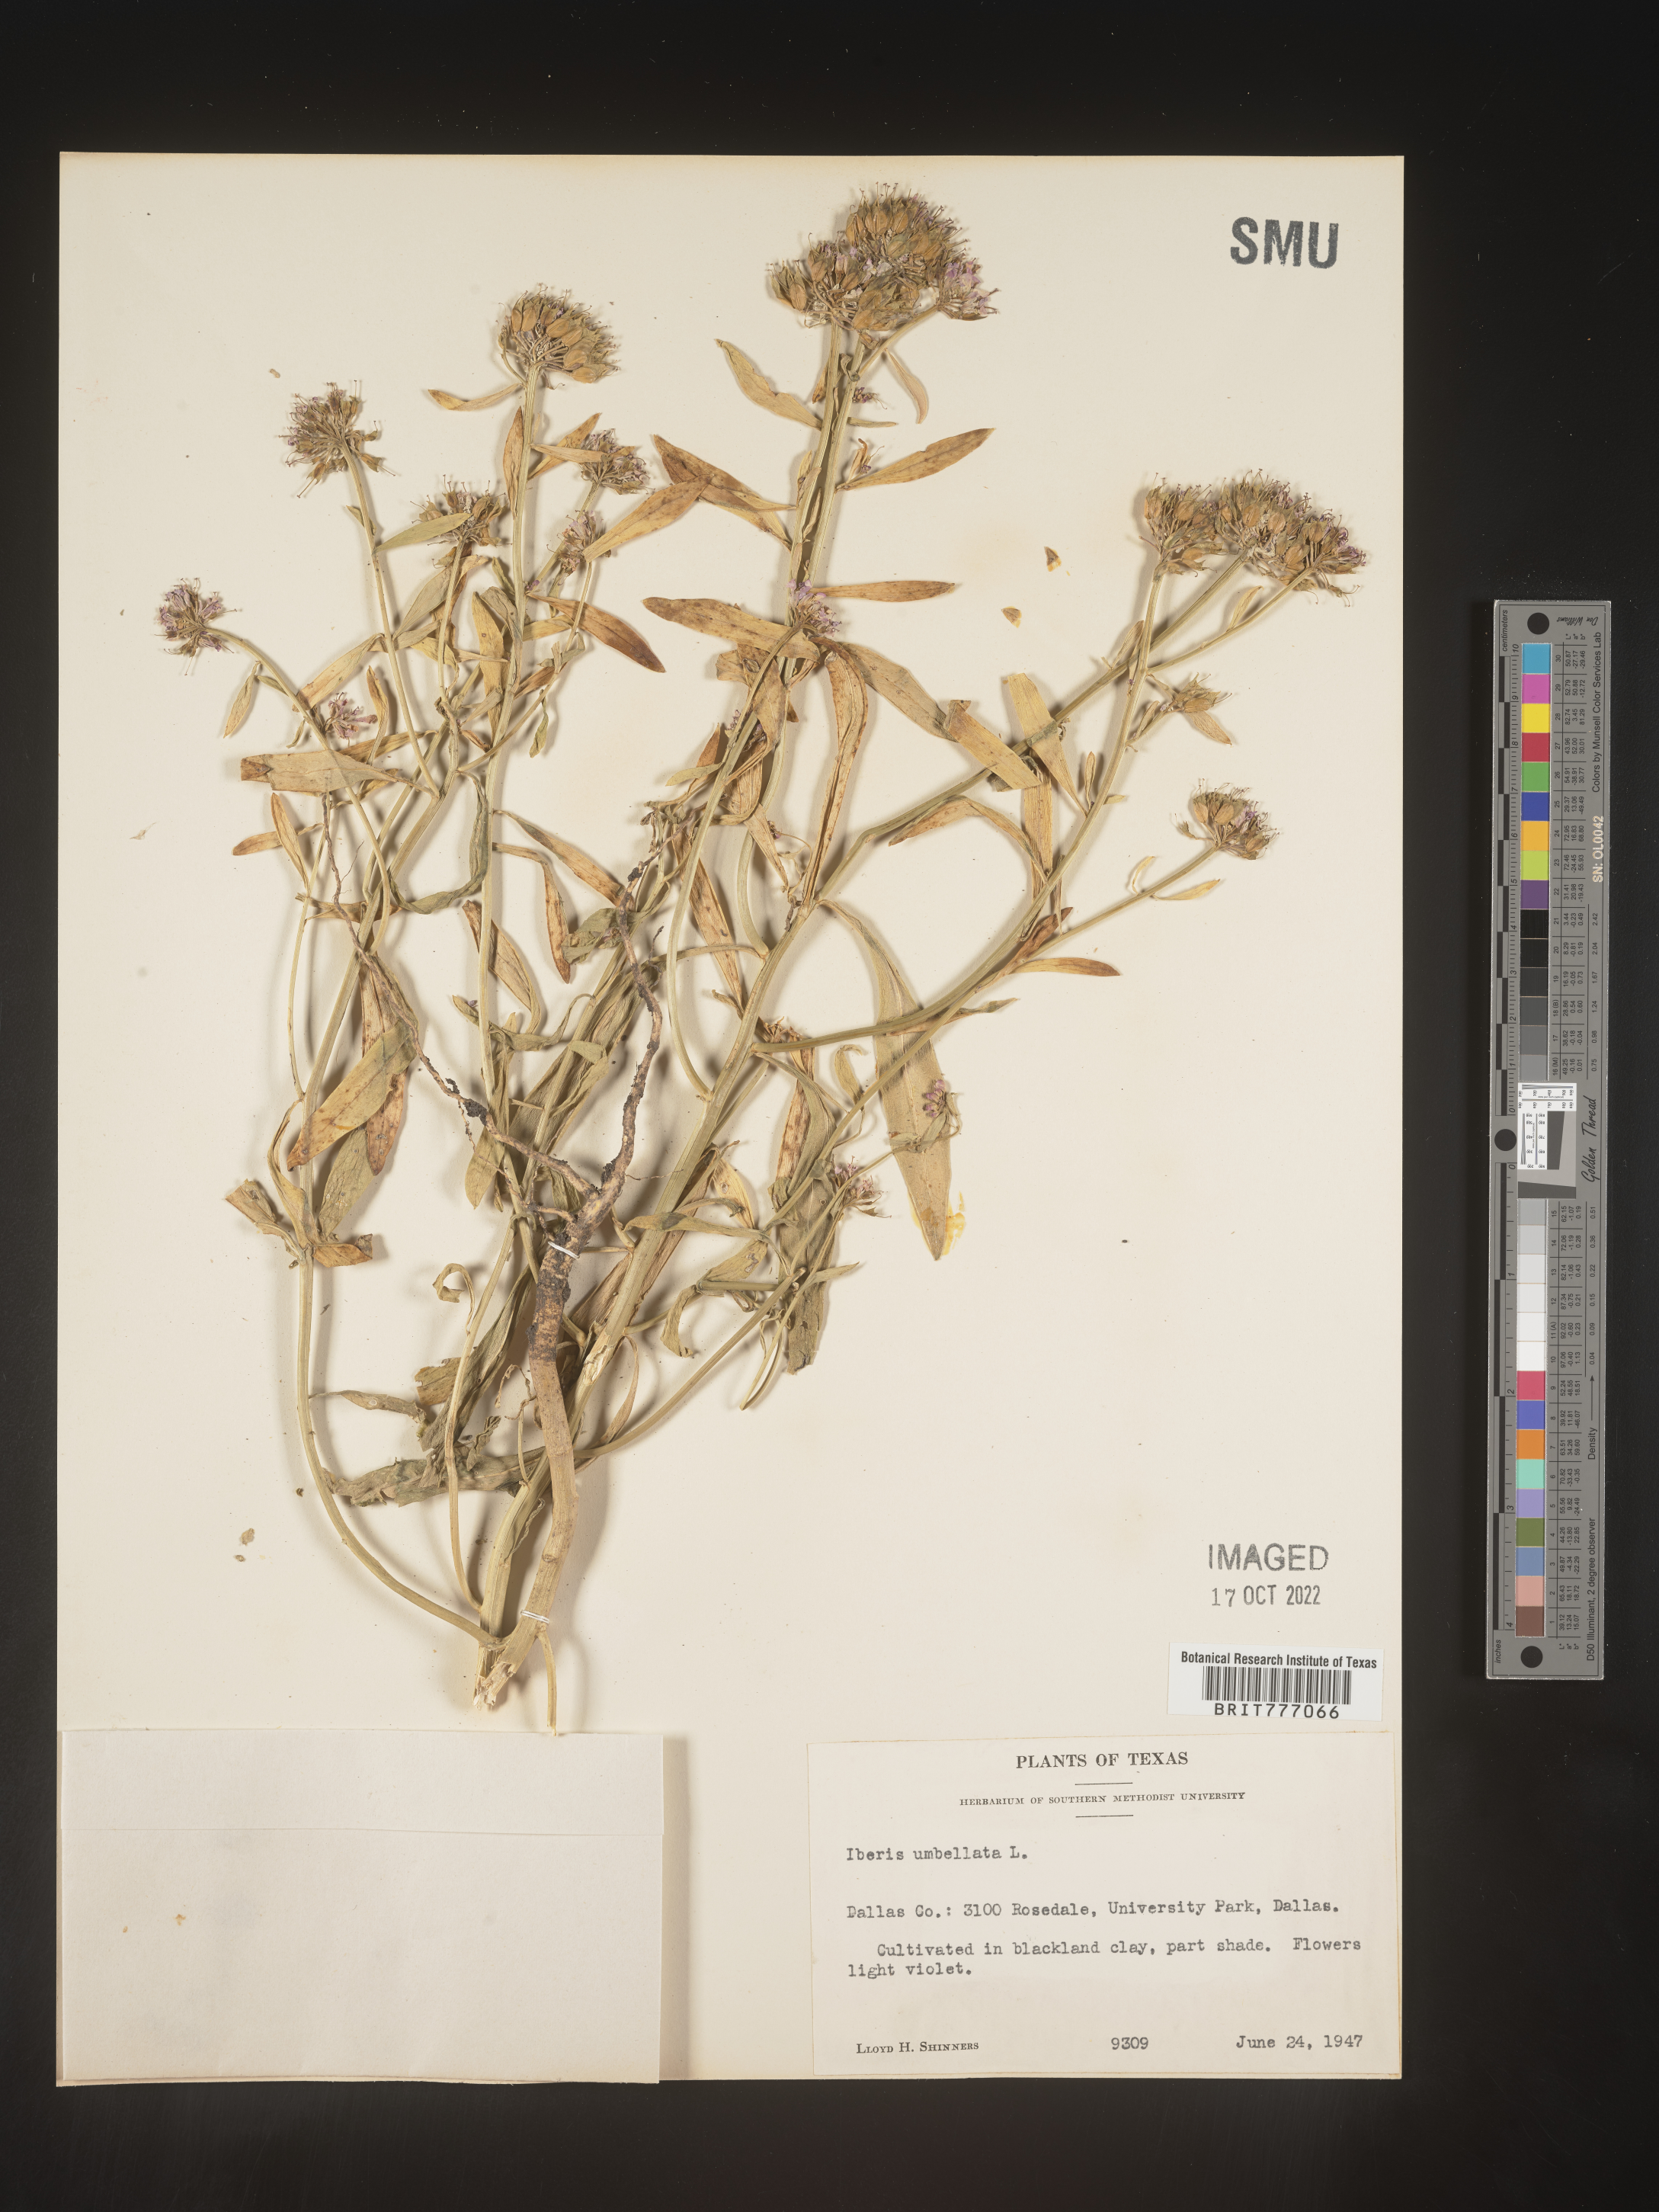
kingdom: Plantae
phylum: Tracheophyta
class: Magnoliopsida
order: Brassicales
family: Brassicaceae
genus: Iberis
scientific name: Iberis
